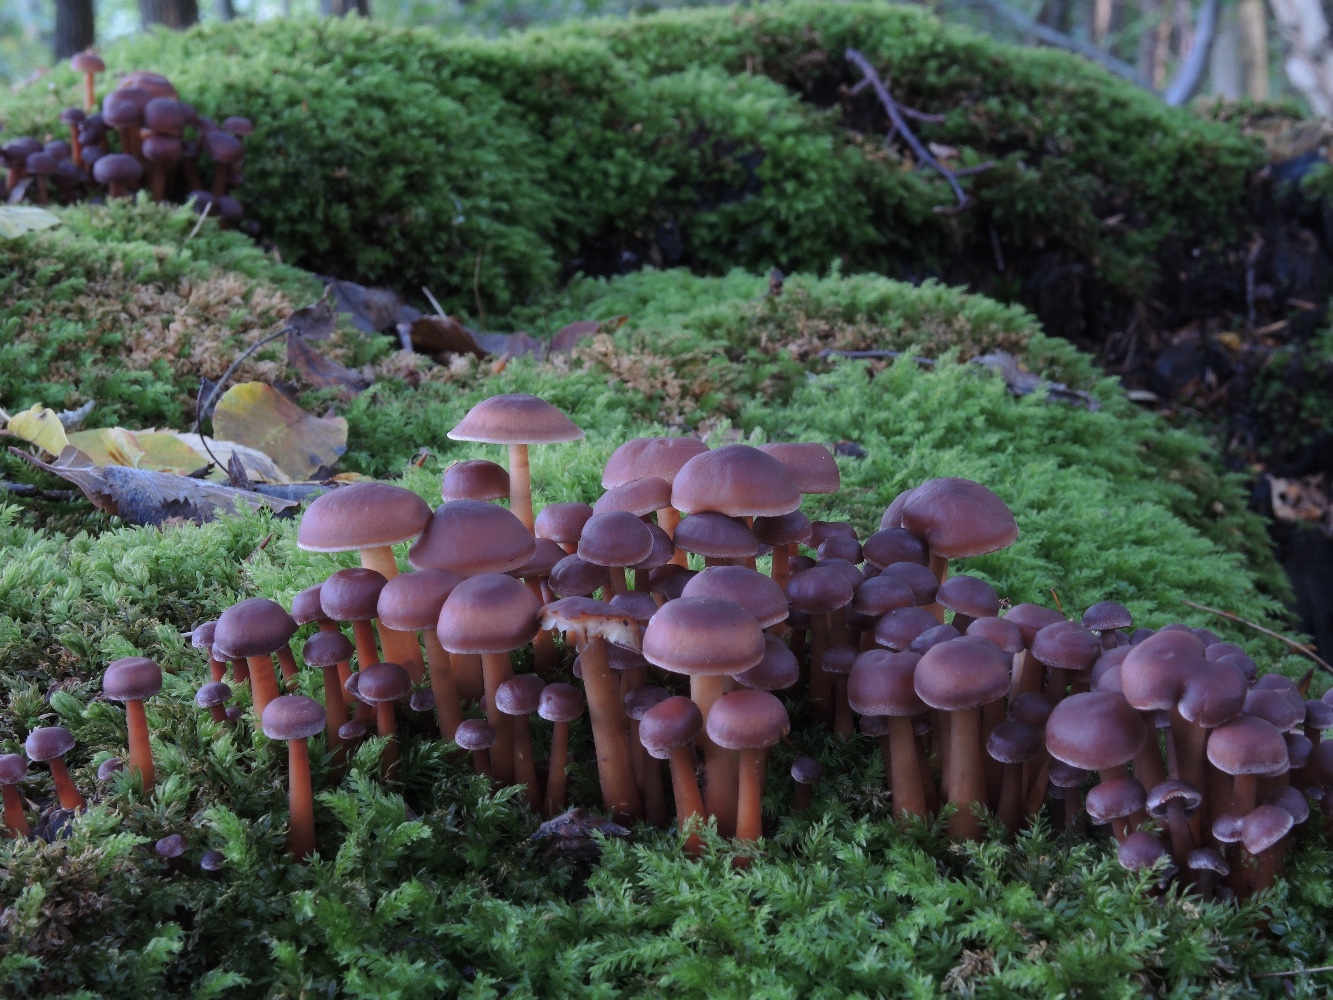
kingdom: Fungi
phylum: Basidiomycota
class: Agaricomycetes
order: Agaricales
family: Omphalotaceae
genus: Gymnopus
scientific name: Gymnopus erythropus
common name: rødstokket fladhat
